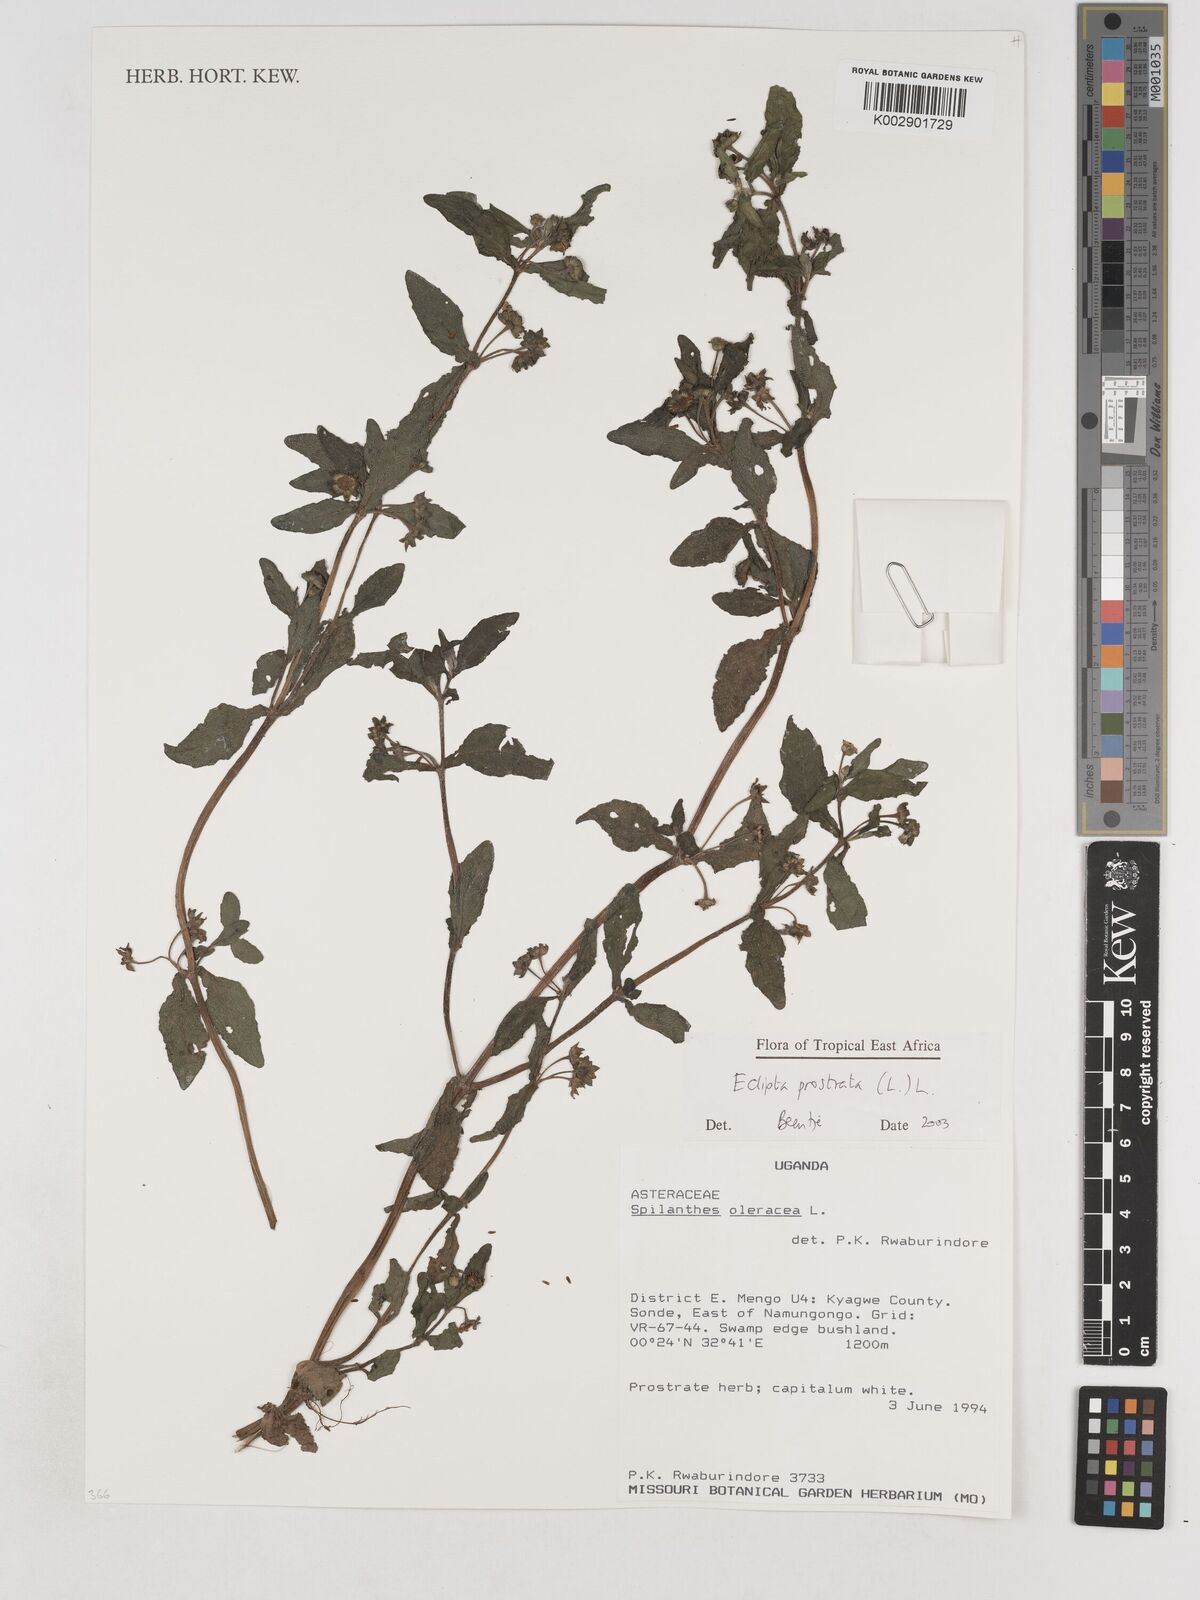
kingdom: Plantae
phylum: Tracheophyta
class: Magnoliopsida
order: Asterales
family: Asteraceae
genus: Eclipta
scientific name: Eclipta alba
